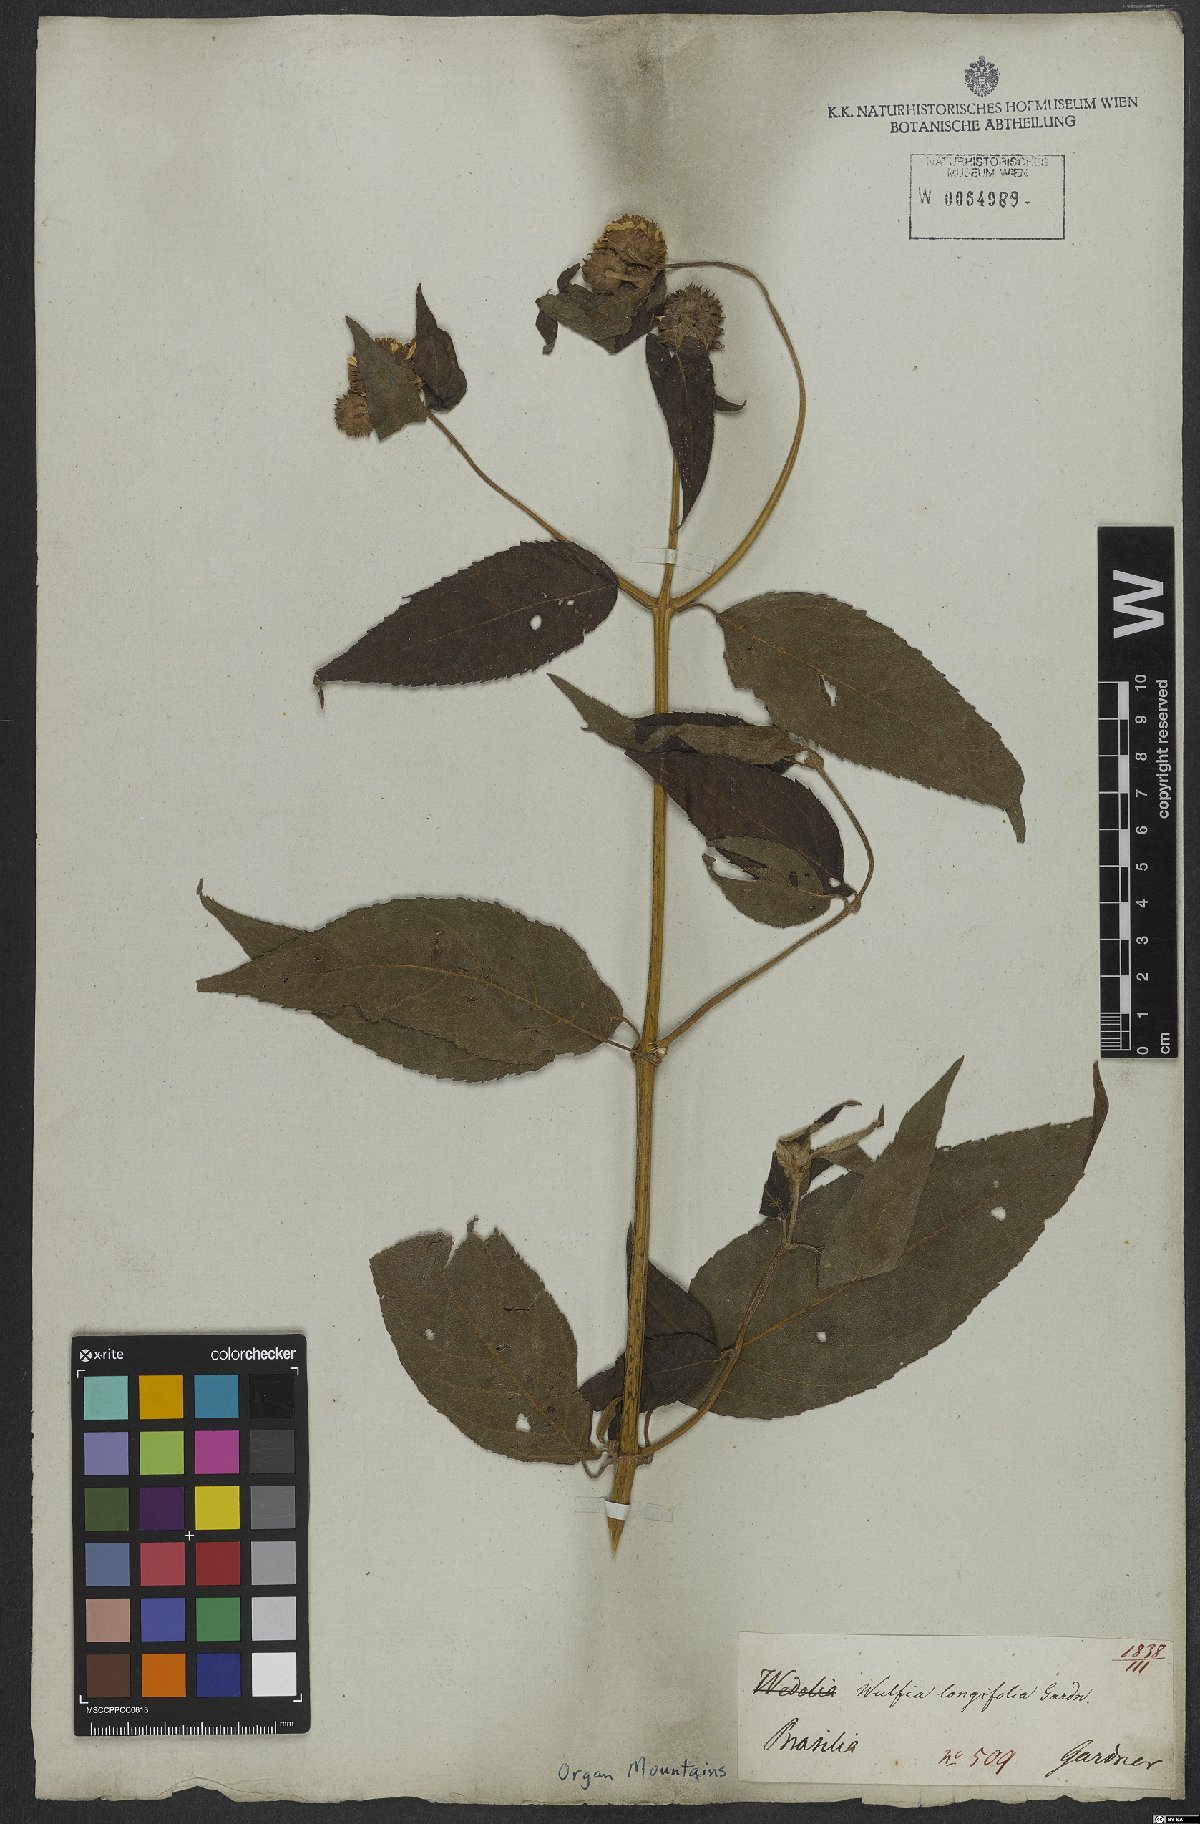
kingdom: Plantae
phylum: Tracheophyta
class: Magnoliopsida
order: Asterales
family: Asteraceae
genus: Tilesia
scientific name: Tilesia baccata
